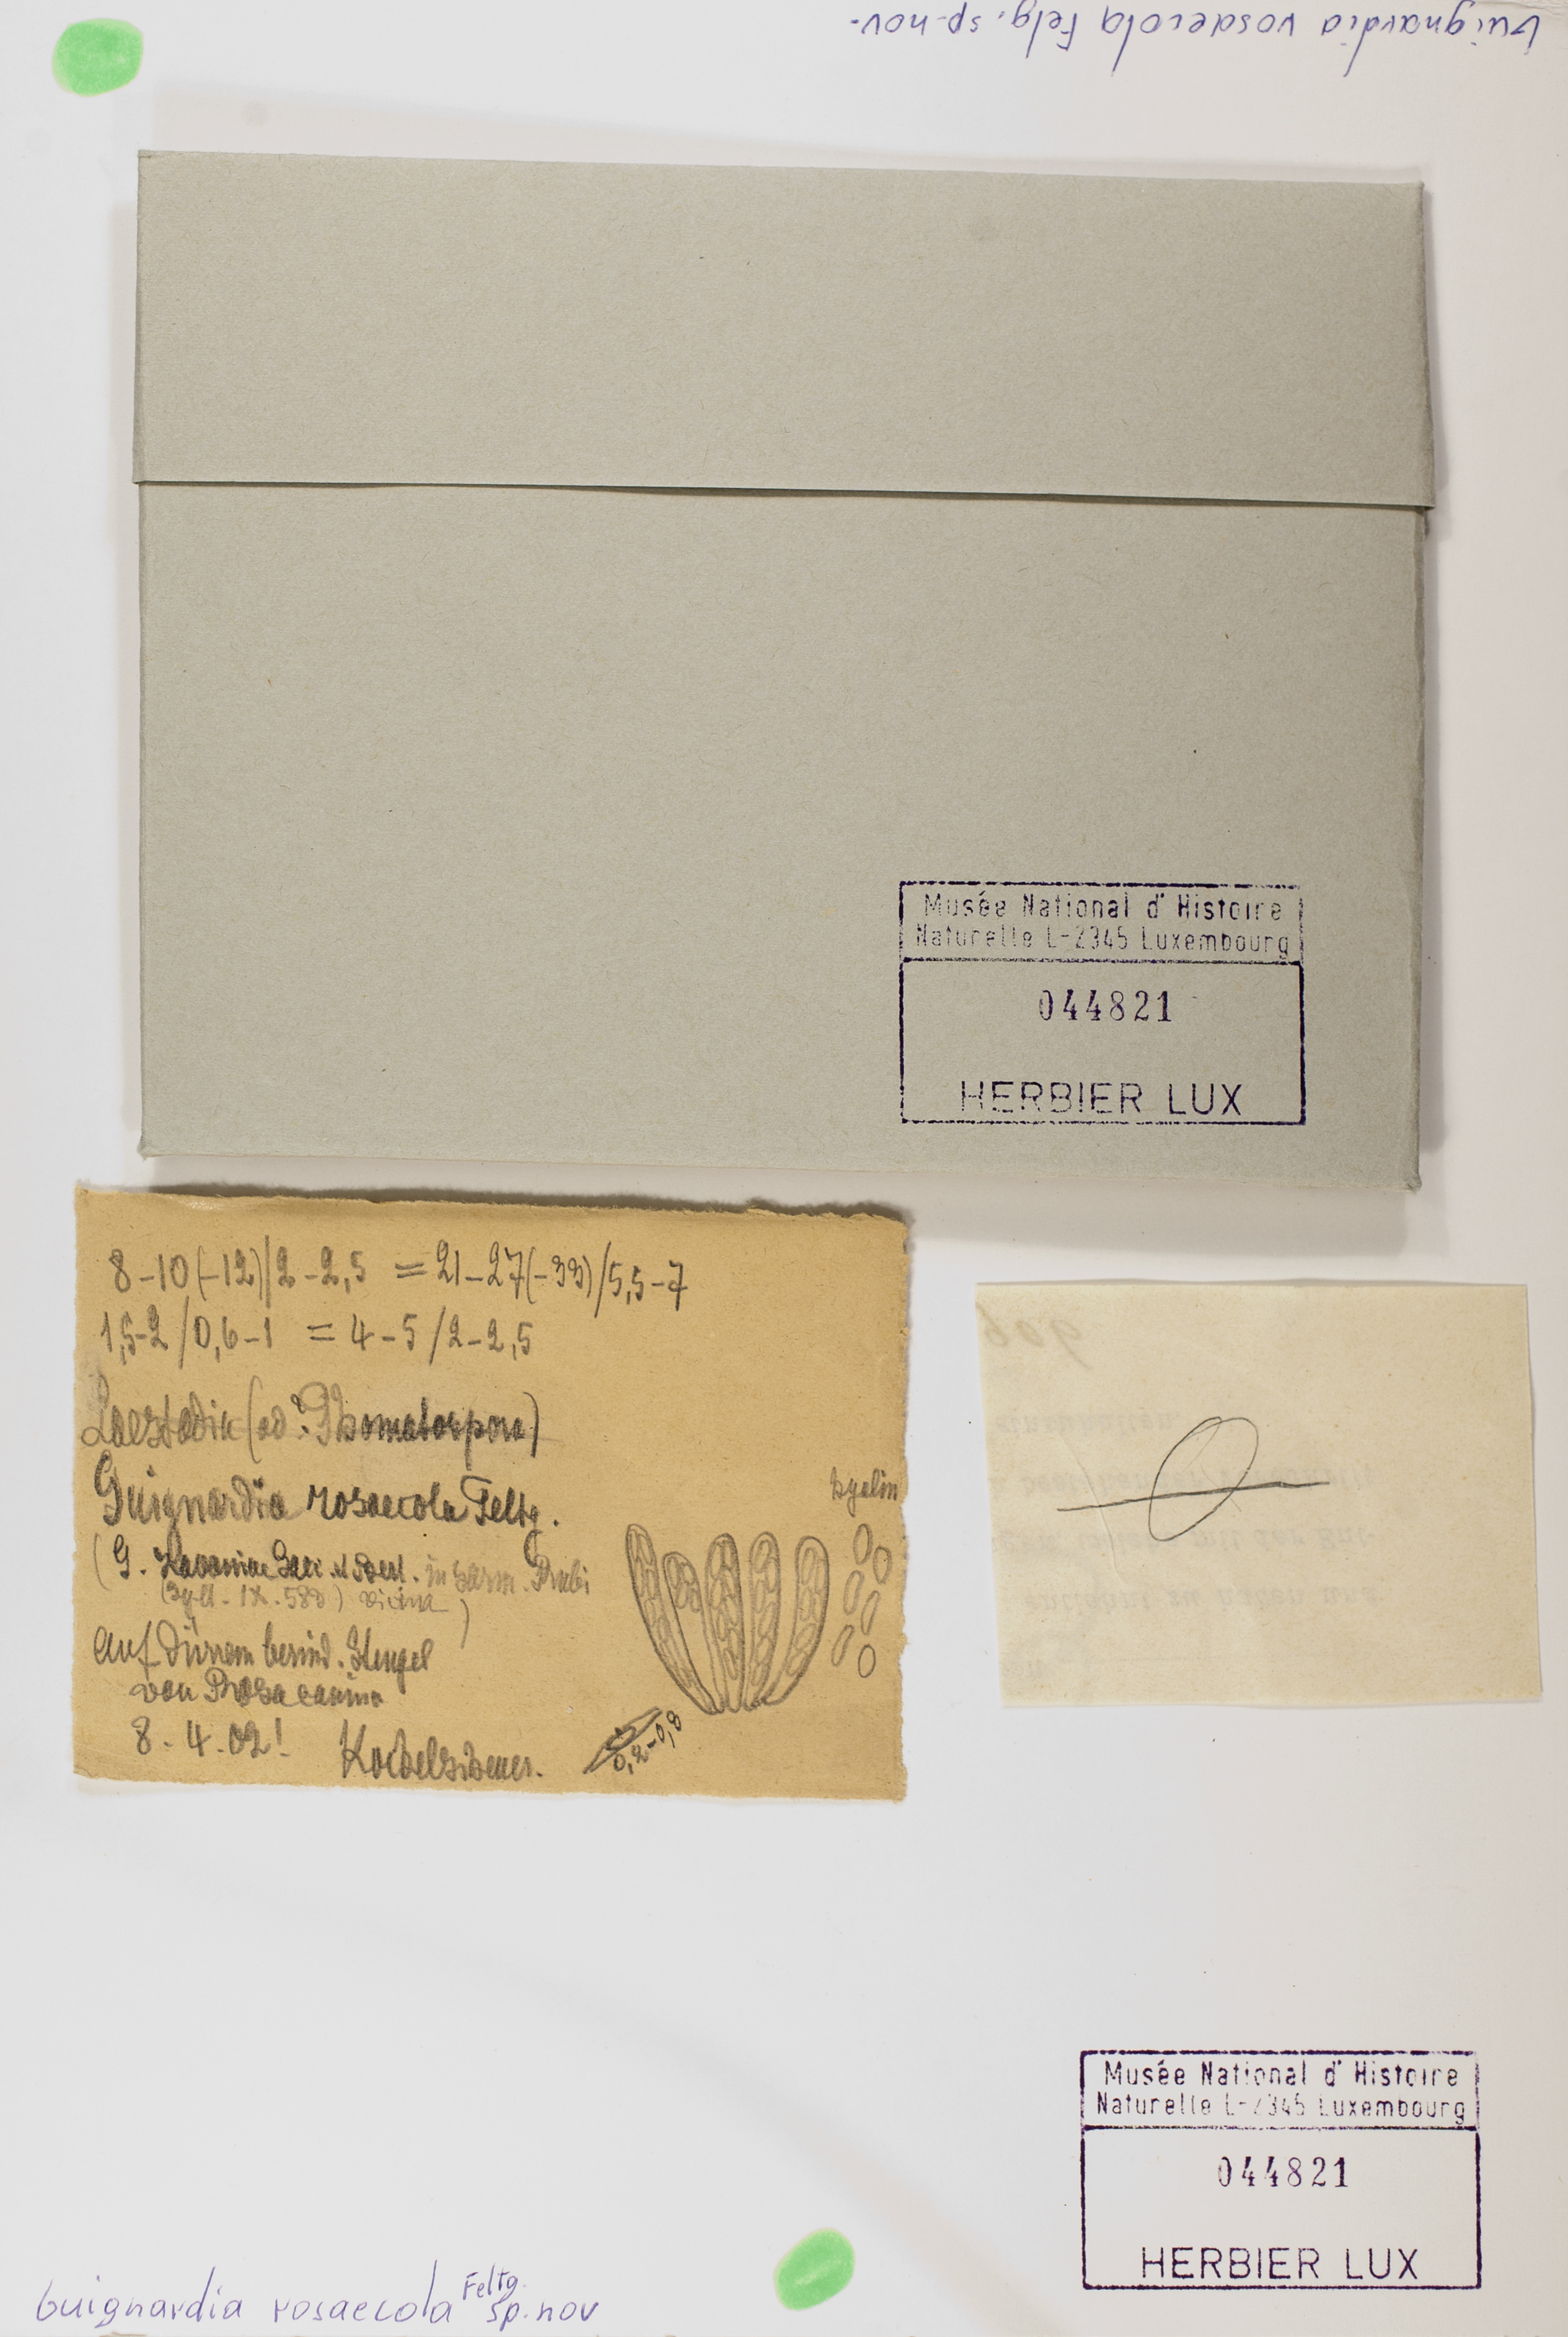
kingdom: Fungi
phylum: Ascomycota
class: Sordariomycetes
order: Diaporthales
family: Gnomoniaceae
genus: Laestadia
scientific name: Laestadia rosicola
